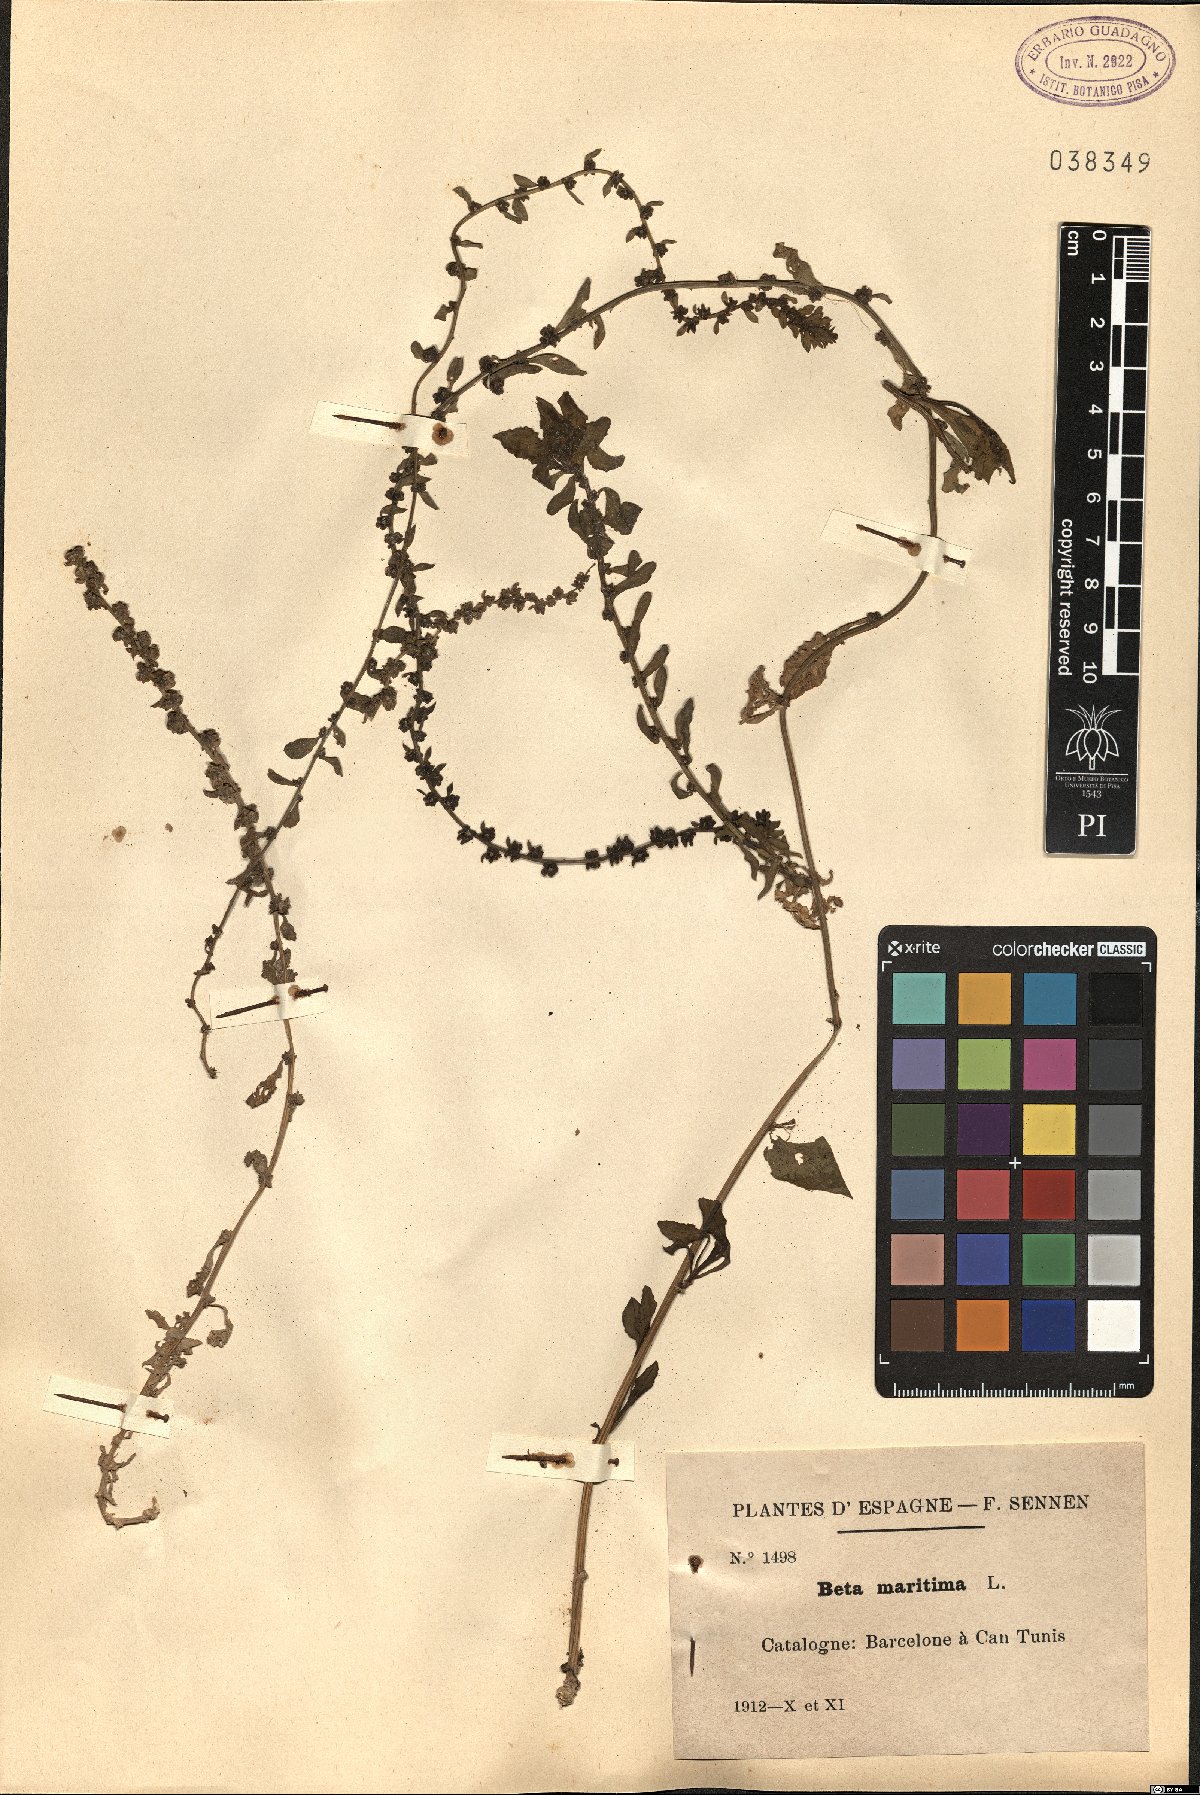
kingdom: Plantae
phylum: Tracheophyta
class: Magnoliopsida
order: Caryophyllales
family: Amaranthaceae
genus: Beta
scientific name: Beta maritima
